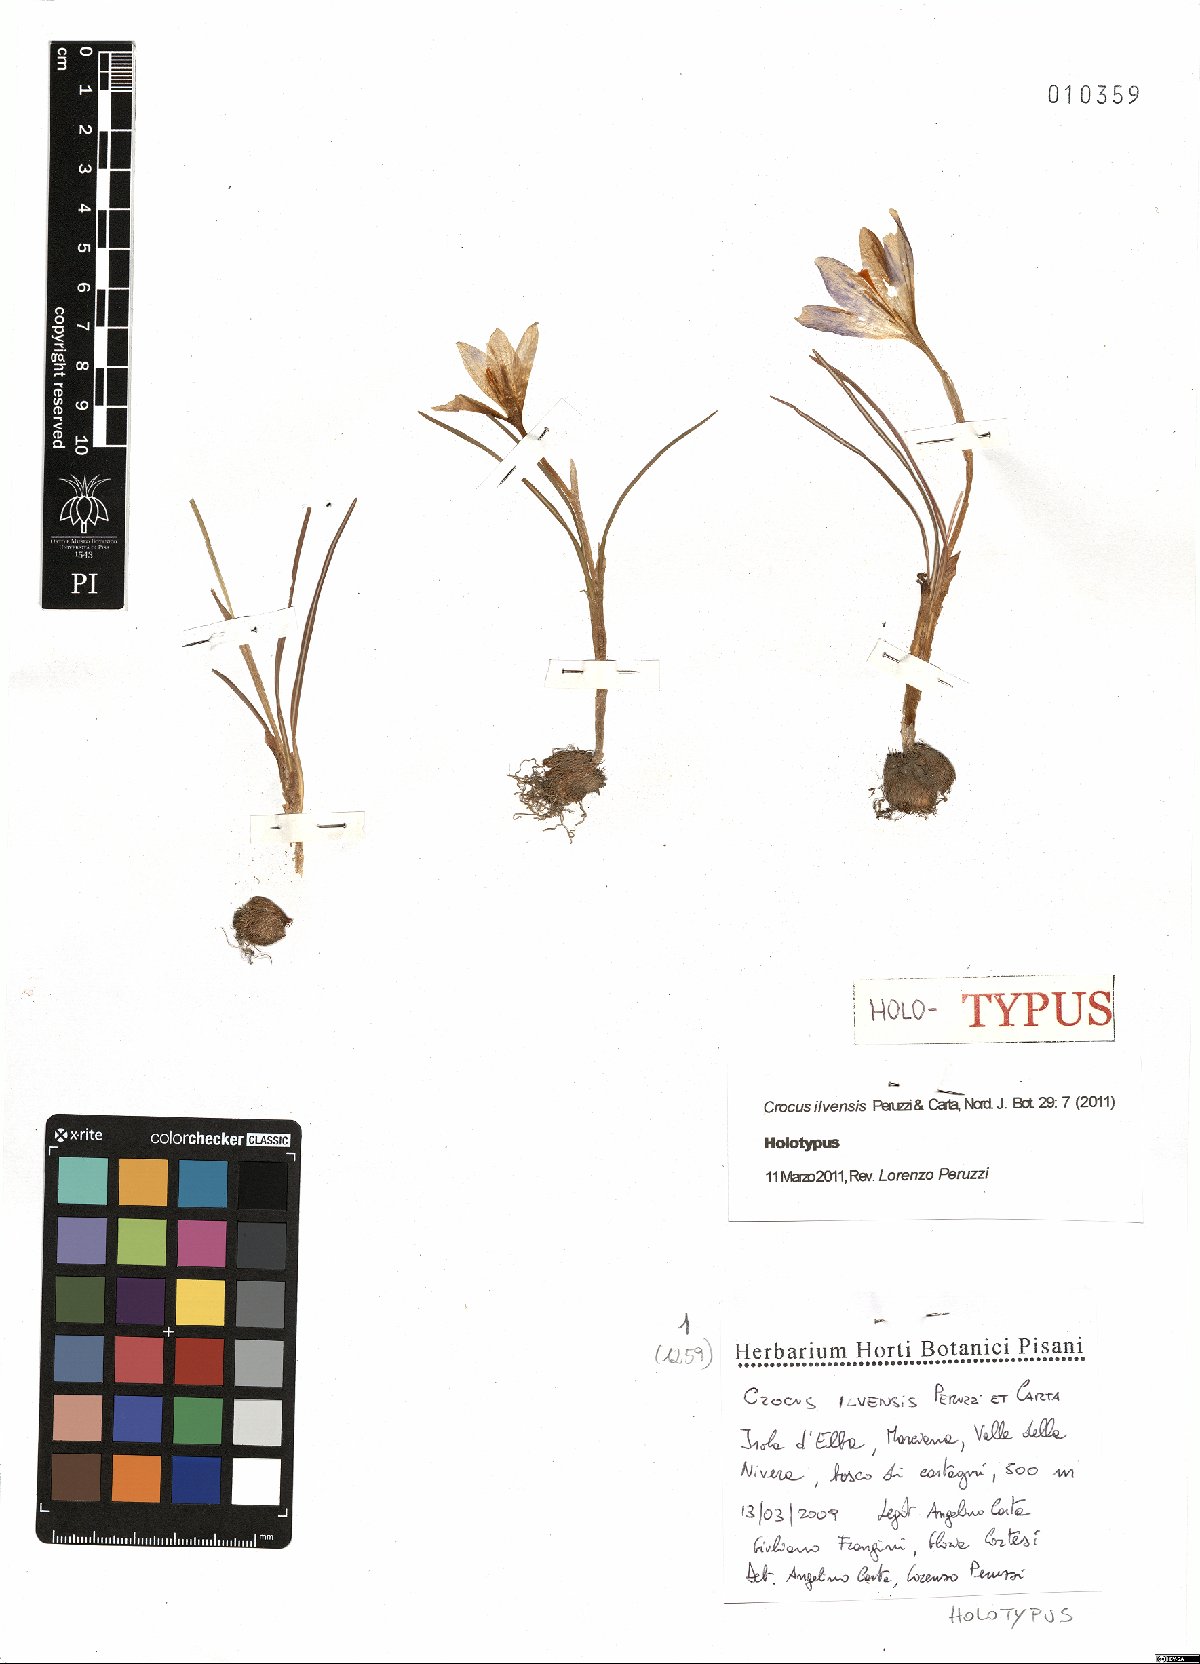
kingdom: Plantae
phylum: Tracheophyta
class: Liliopsida
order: Asparagales
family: Iridaceae
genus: Crocus
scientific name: Crocus ilvensis
